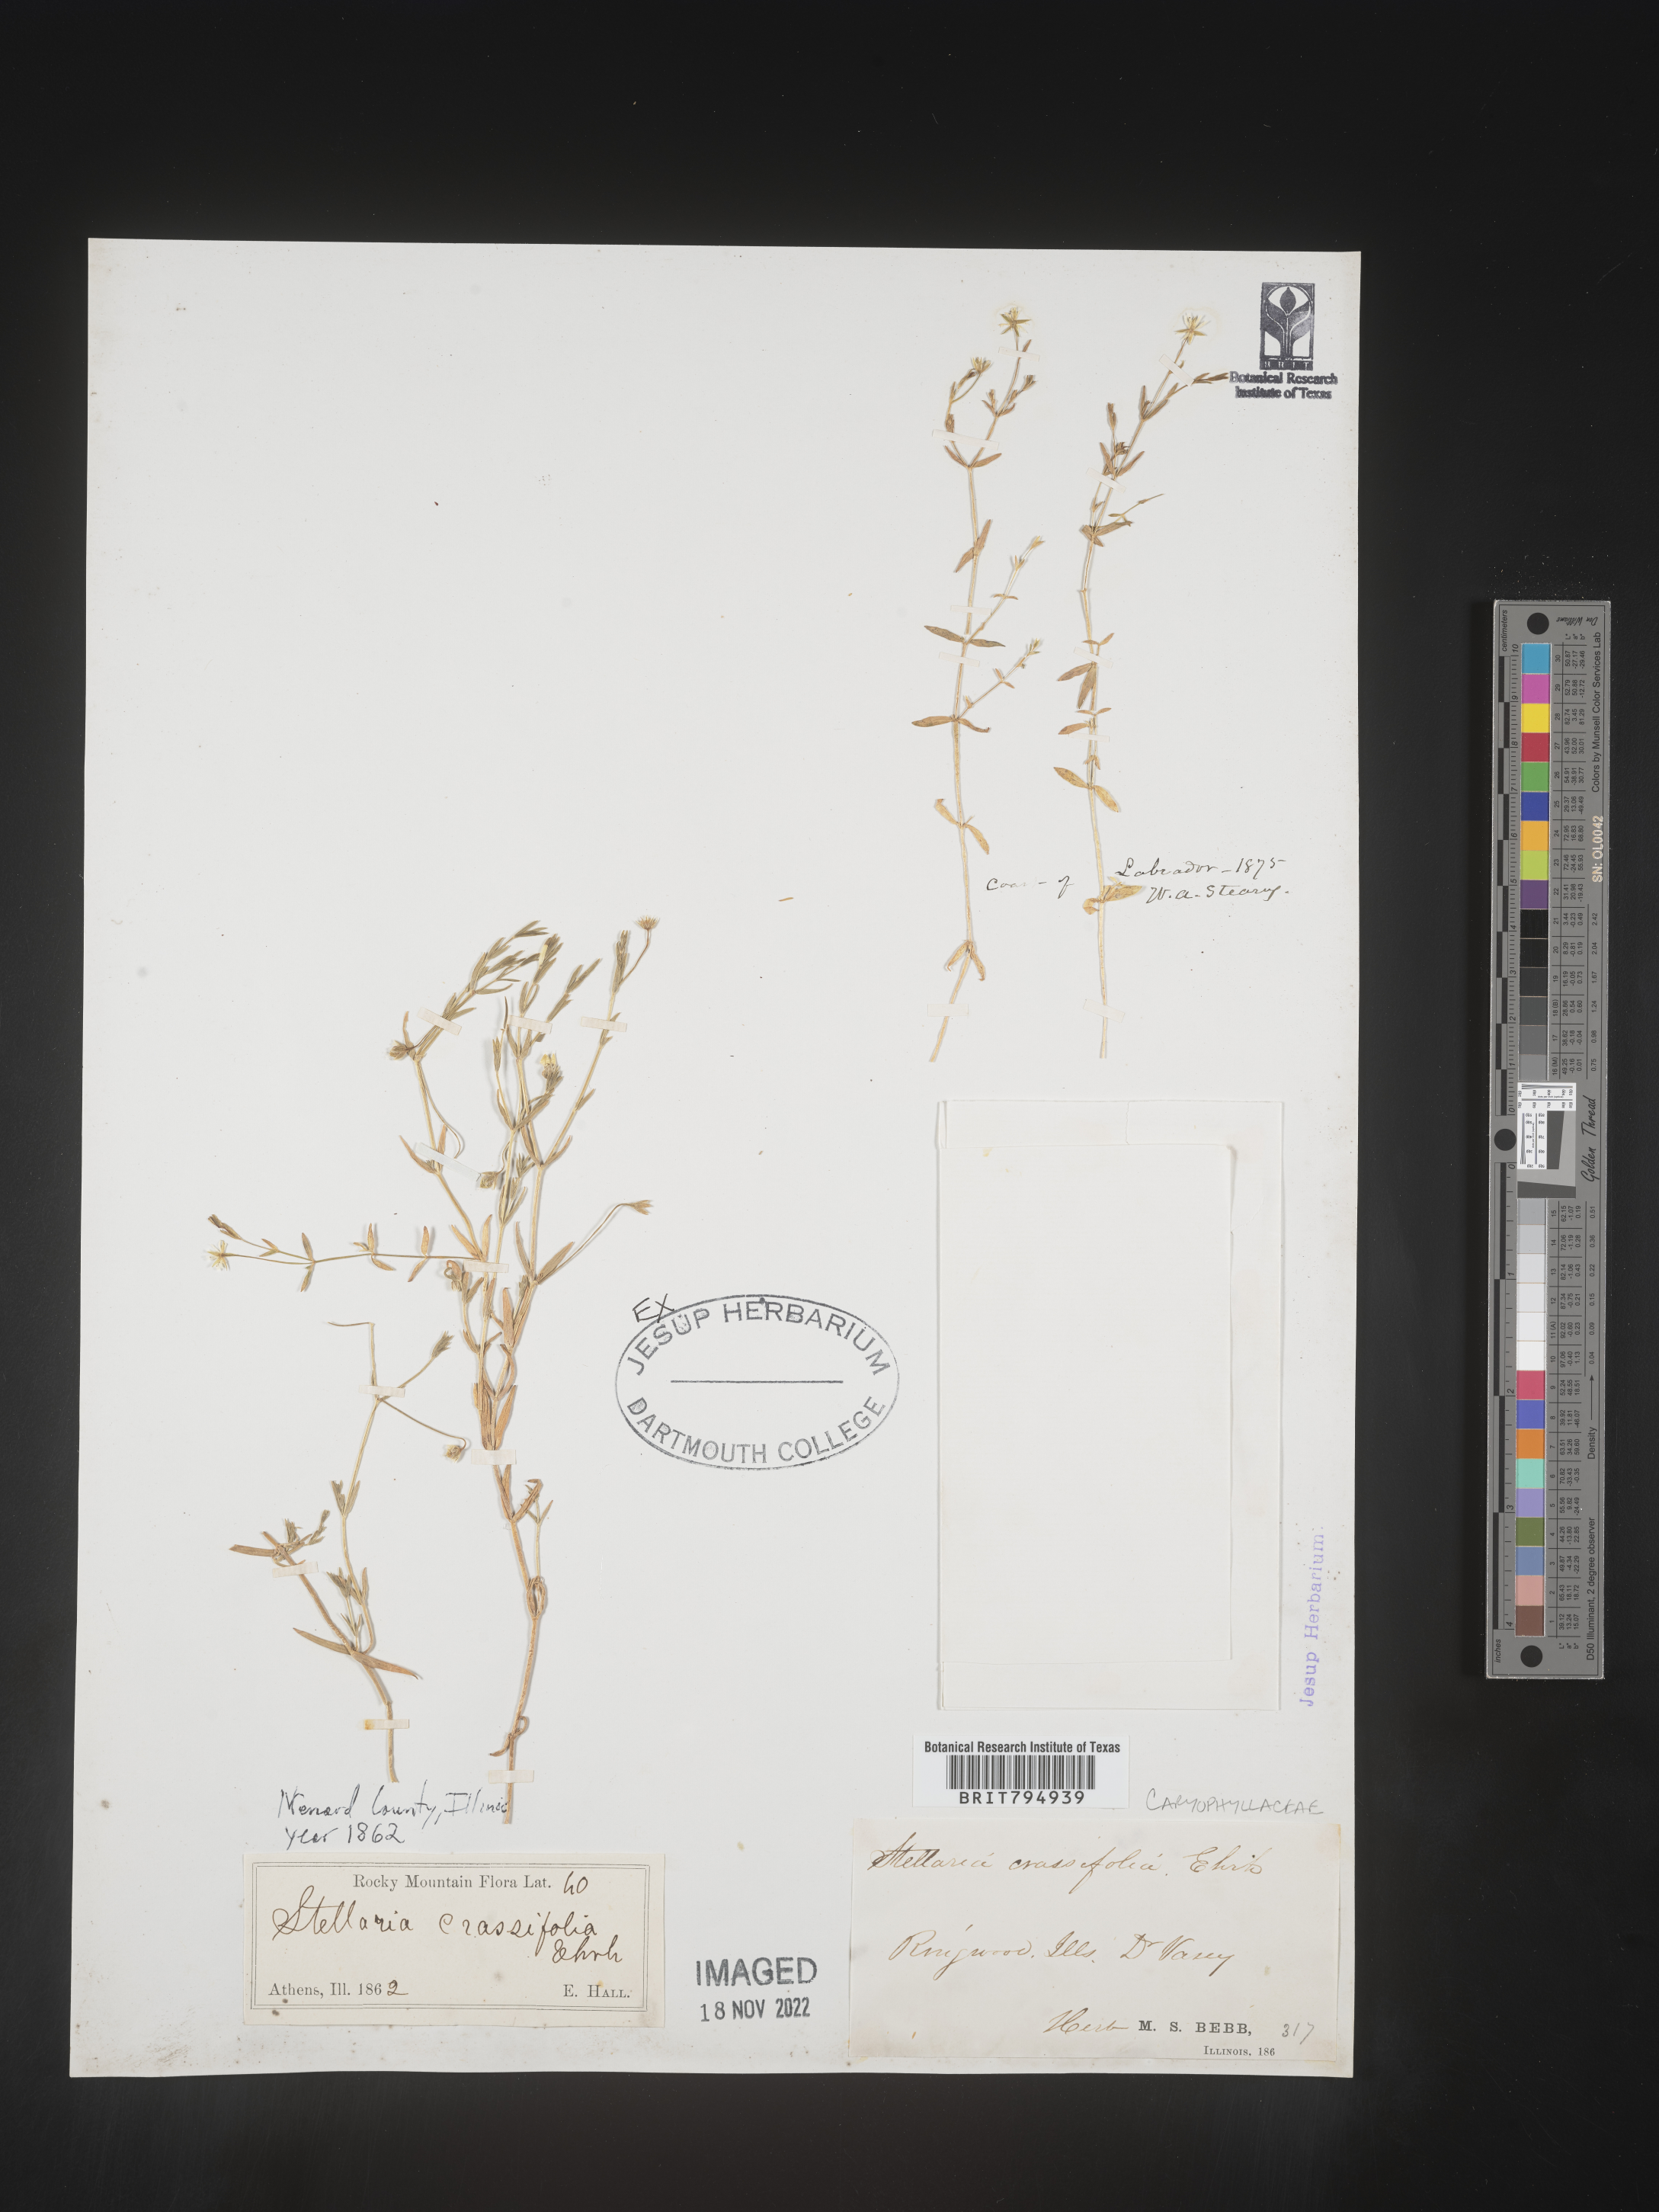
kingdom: Plantae
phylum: Tracheophyta
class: Magnoliopsida
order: Caryophyllales
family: Caryophyllaceae
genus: Stellaria
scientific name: Stellaria crassifolia
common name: Fleshy starwort
